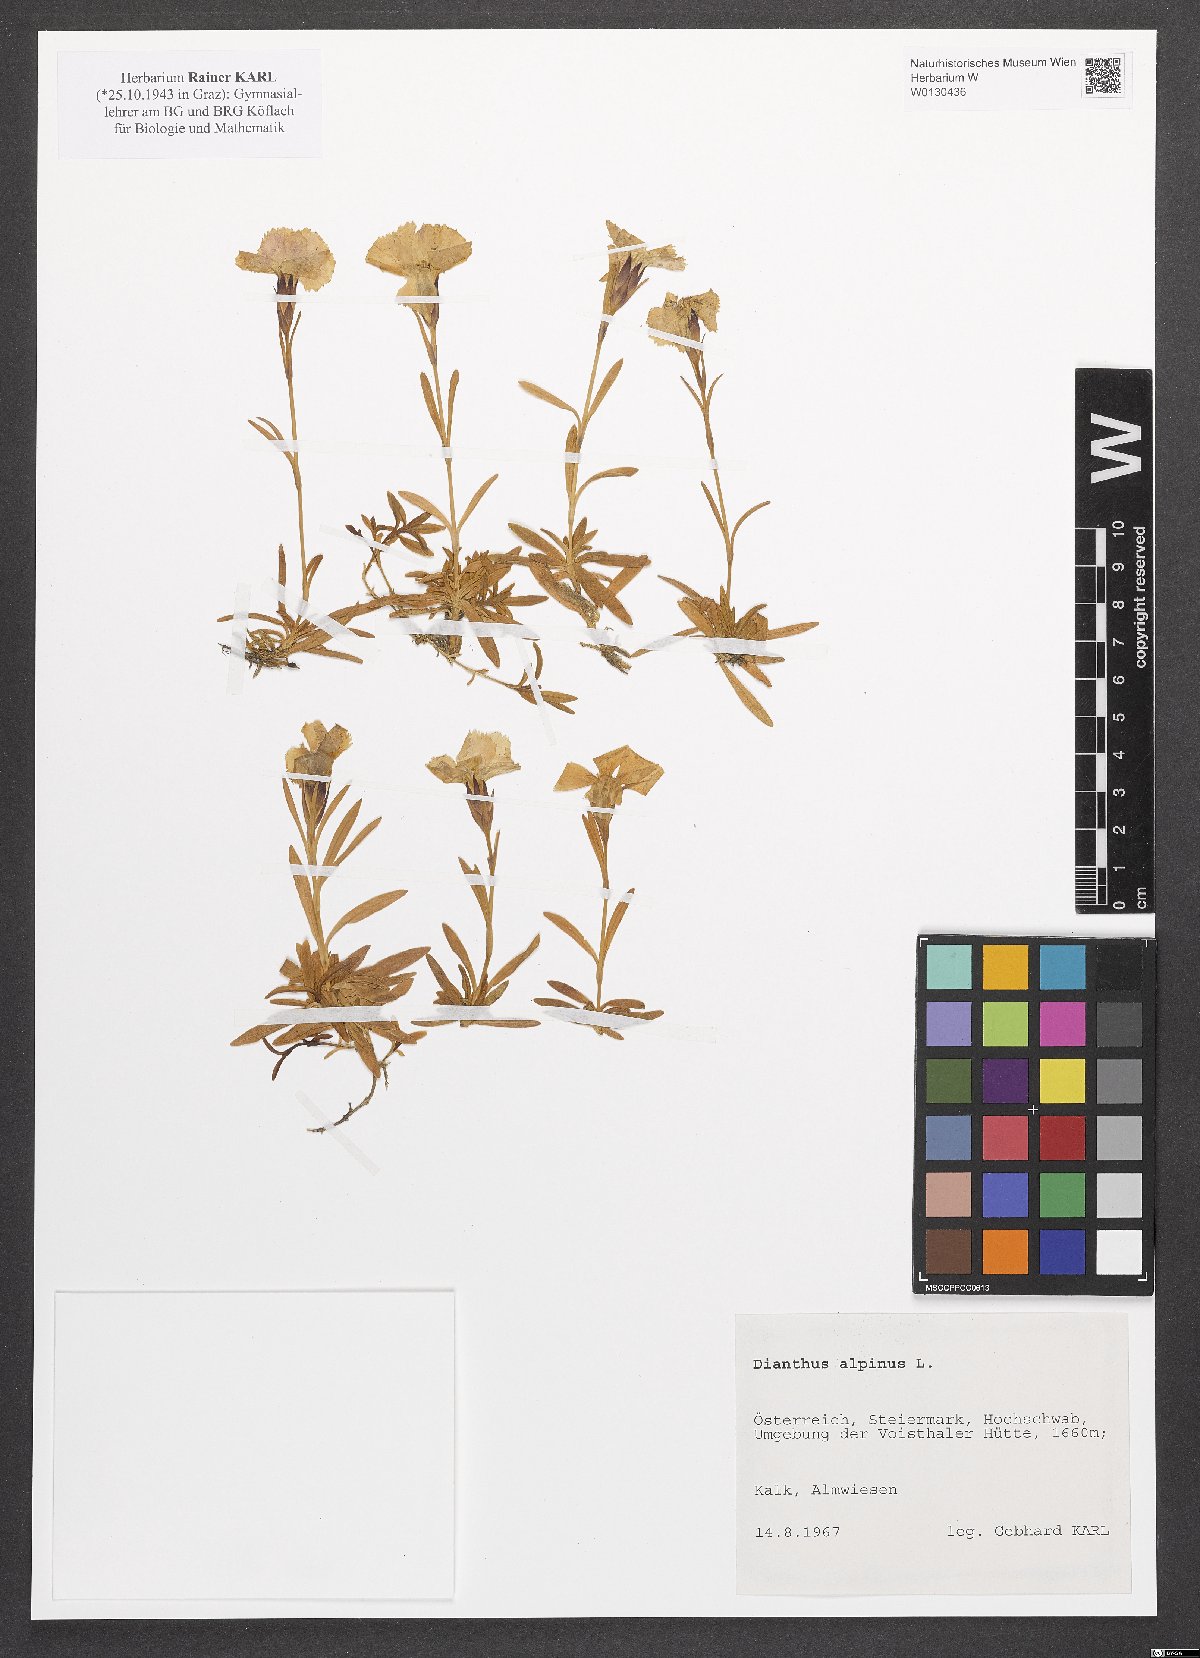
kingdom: Plantae
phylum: Tracheophyta
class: Magnoliopsida
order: Caryophyllales
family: Caryophyllaceae
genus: Dianthus
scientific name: Dianthus alpinus
